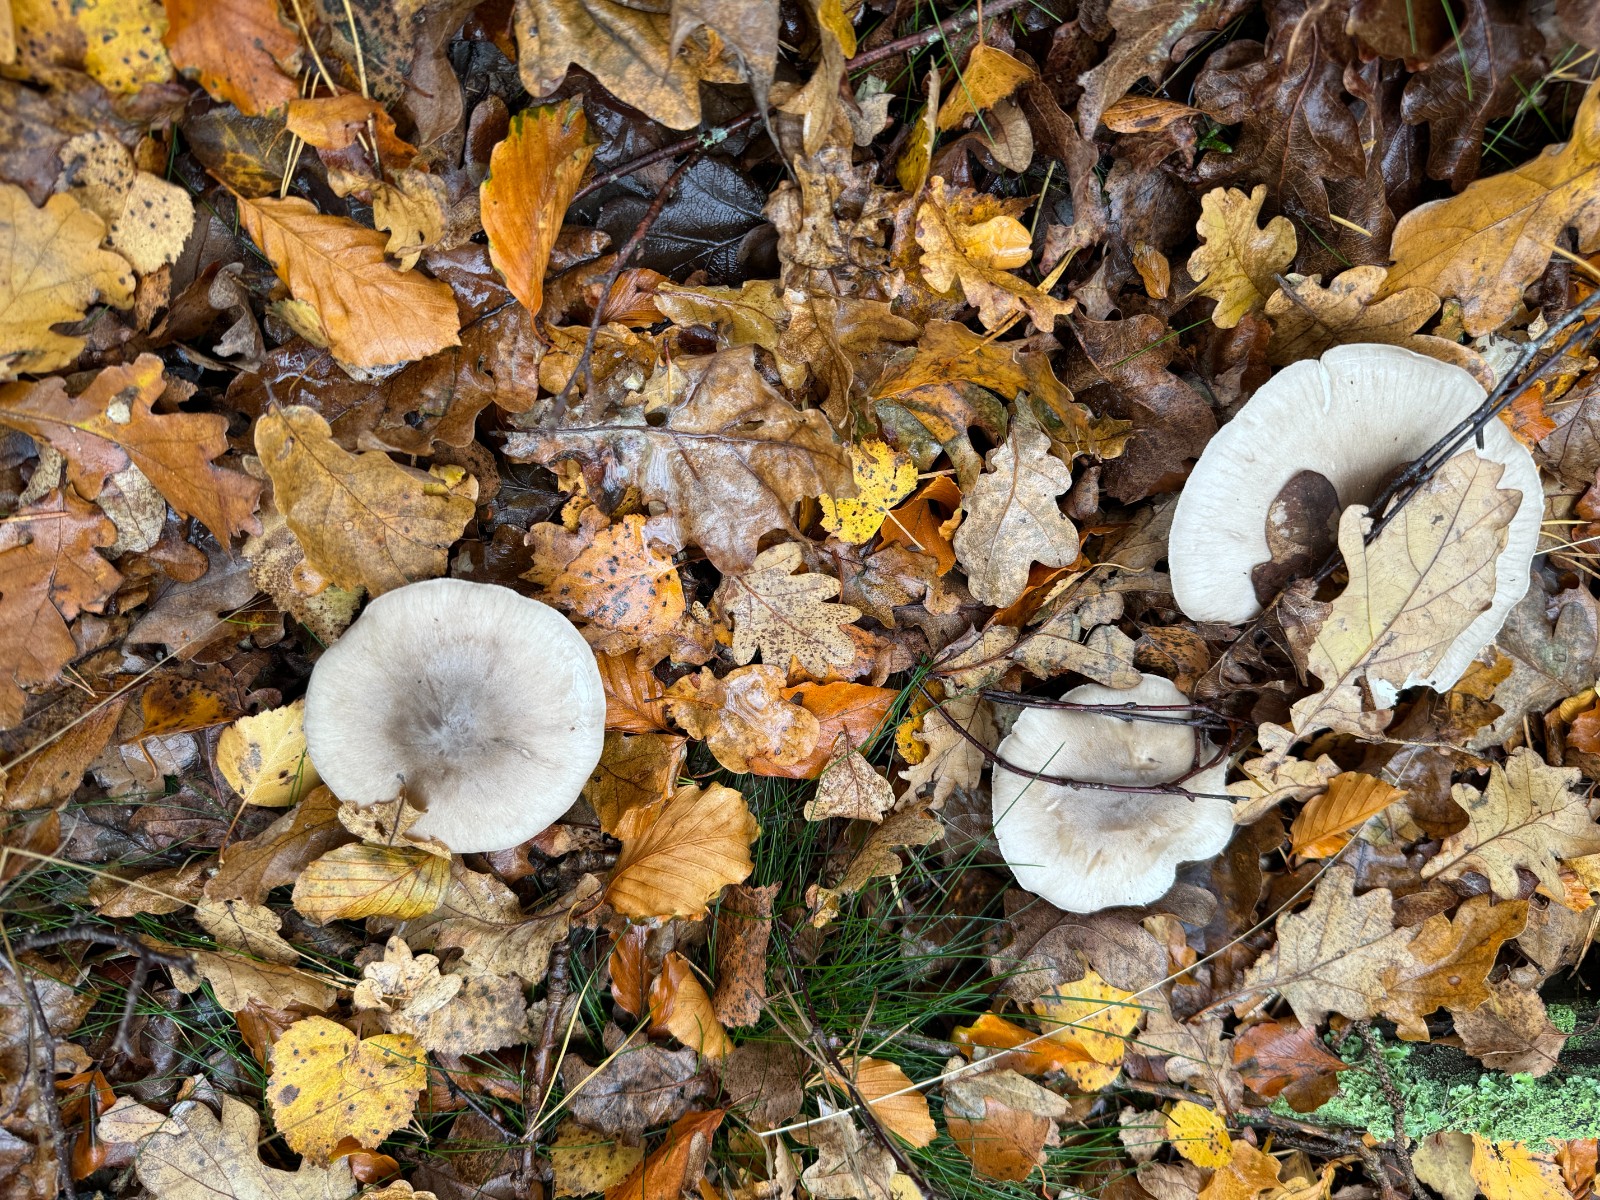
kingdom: Fungi
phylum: Basidiomycota
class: Agaricomycetes
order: Agaricales
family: Tricholomataceae
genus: Clitocybe
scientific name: Clitocybe nebularis
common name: tåge-tragthat
